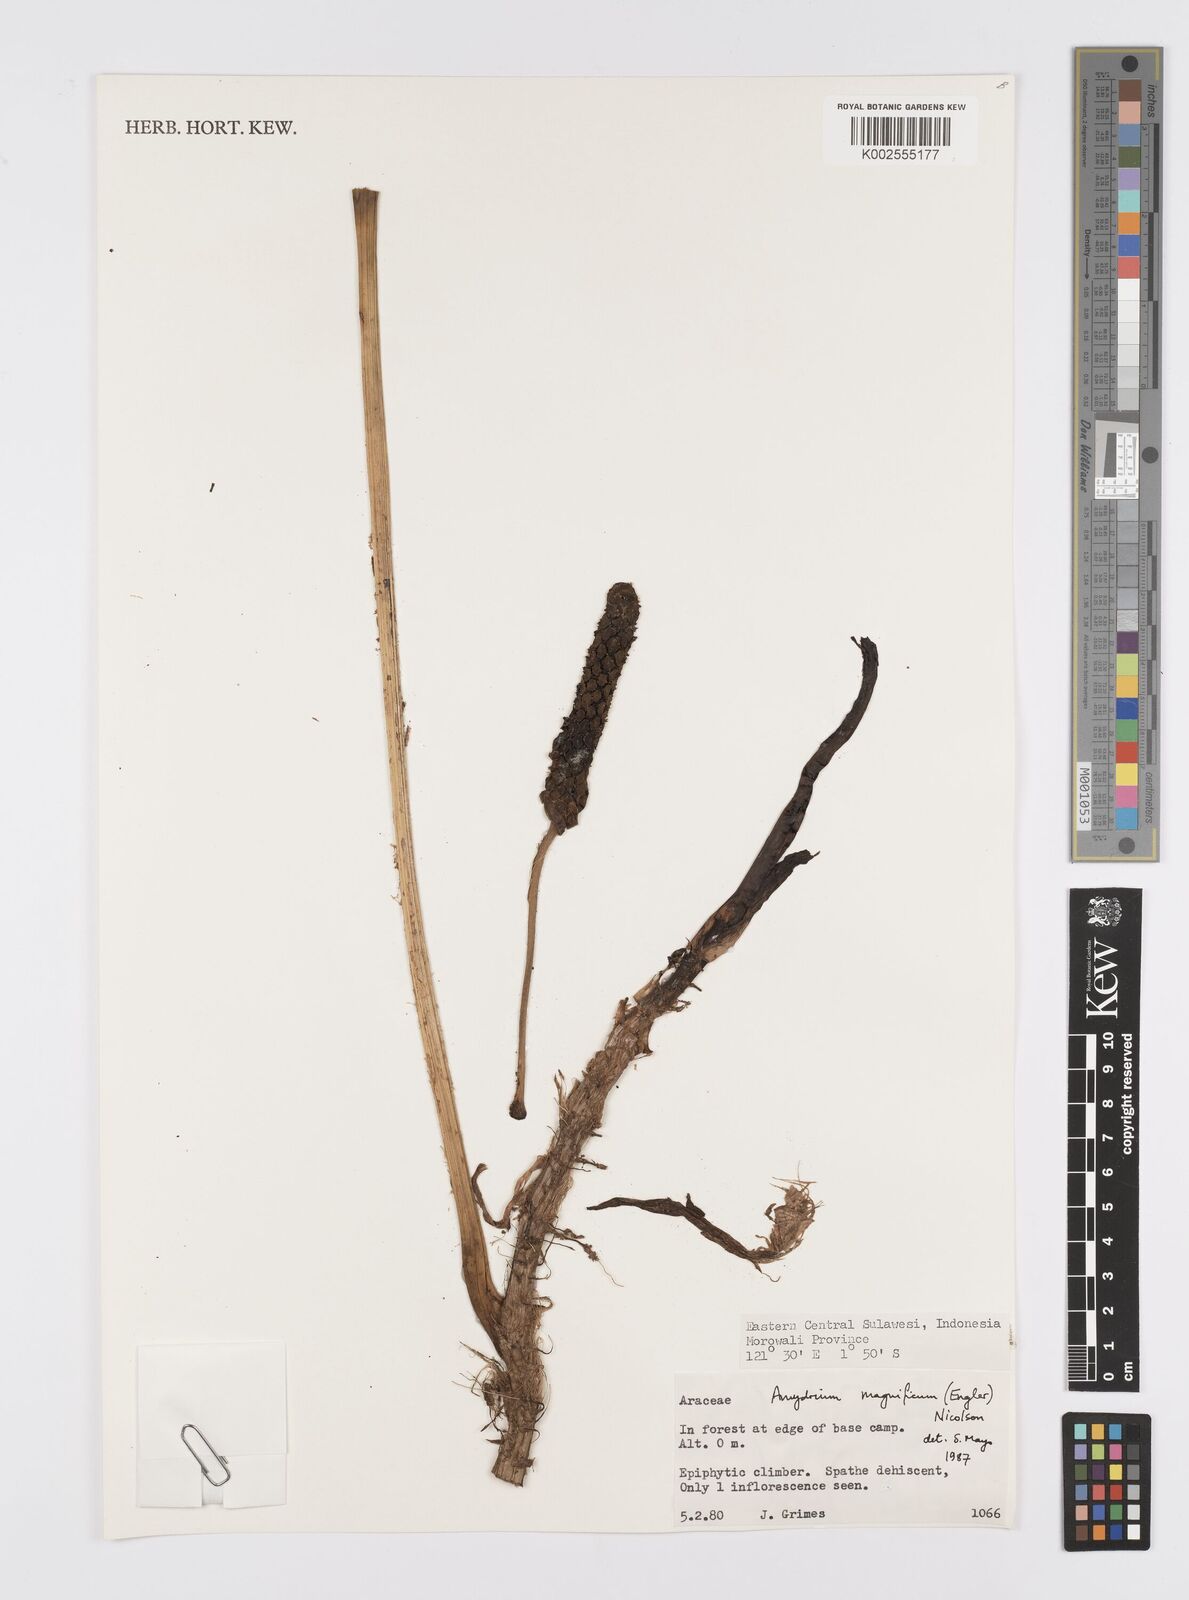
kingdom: Plantae
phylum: Tracheophyta
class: Liliopsida
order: Alismatales
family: Araceae
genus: Amydrium
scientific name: Amydrium zippelianum
